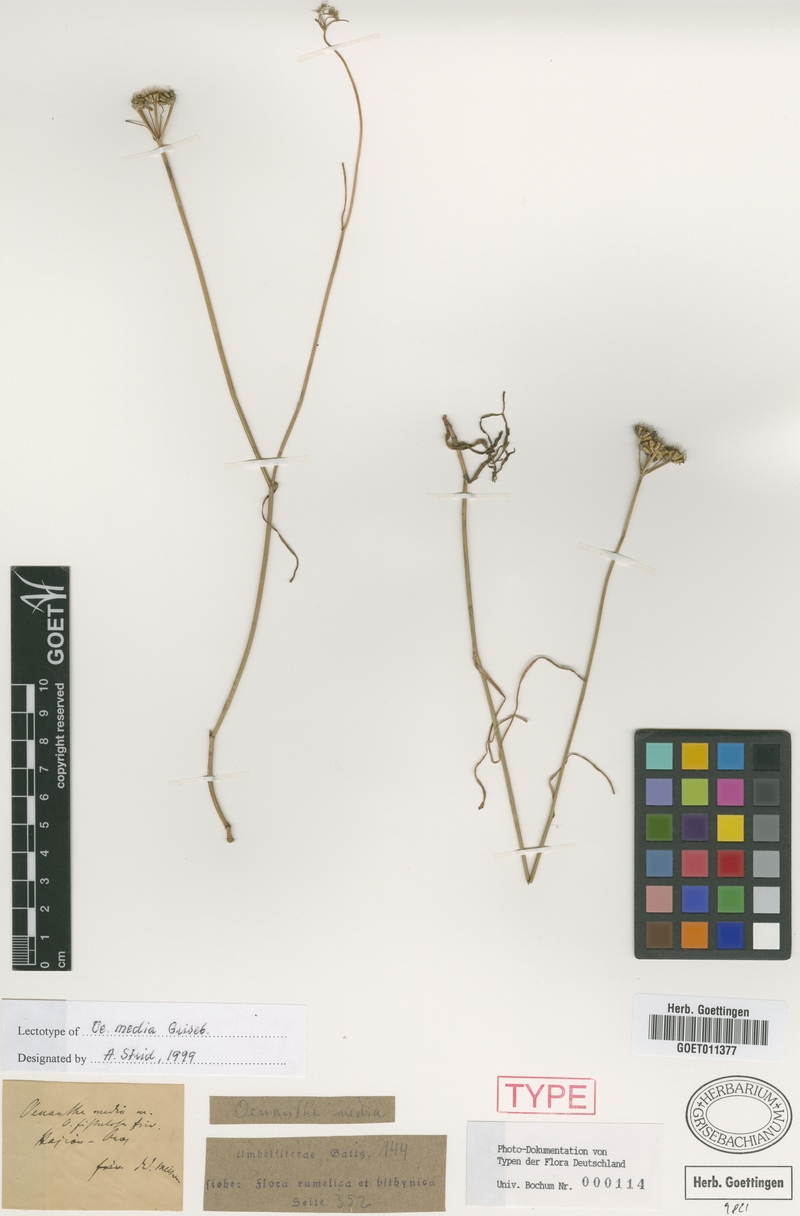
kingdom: Plantae
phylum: Tracheophyta
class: Magnoliopsida
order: Apiales
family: Apiaceae
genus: Oenanthe
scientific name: Oenanthe silaifolia
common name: Narrow-leaved water-dropwort
